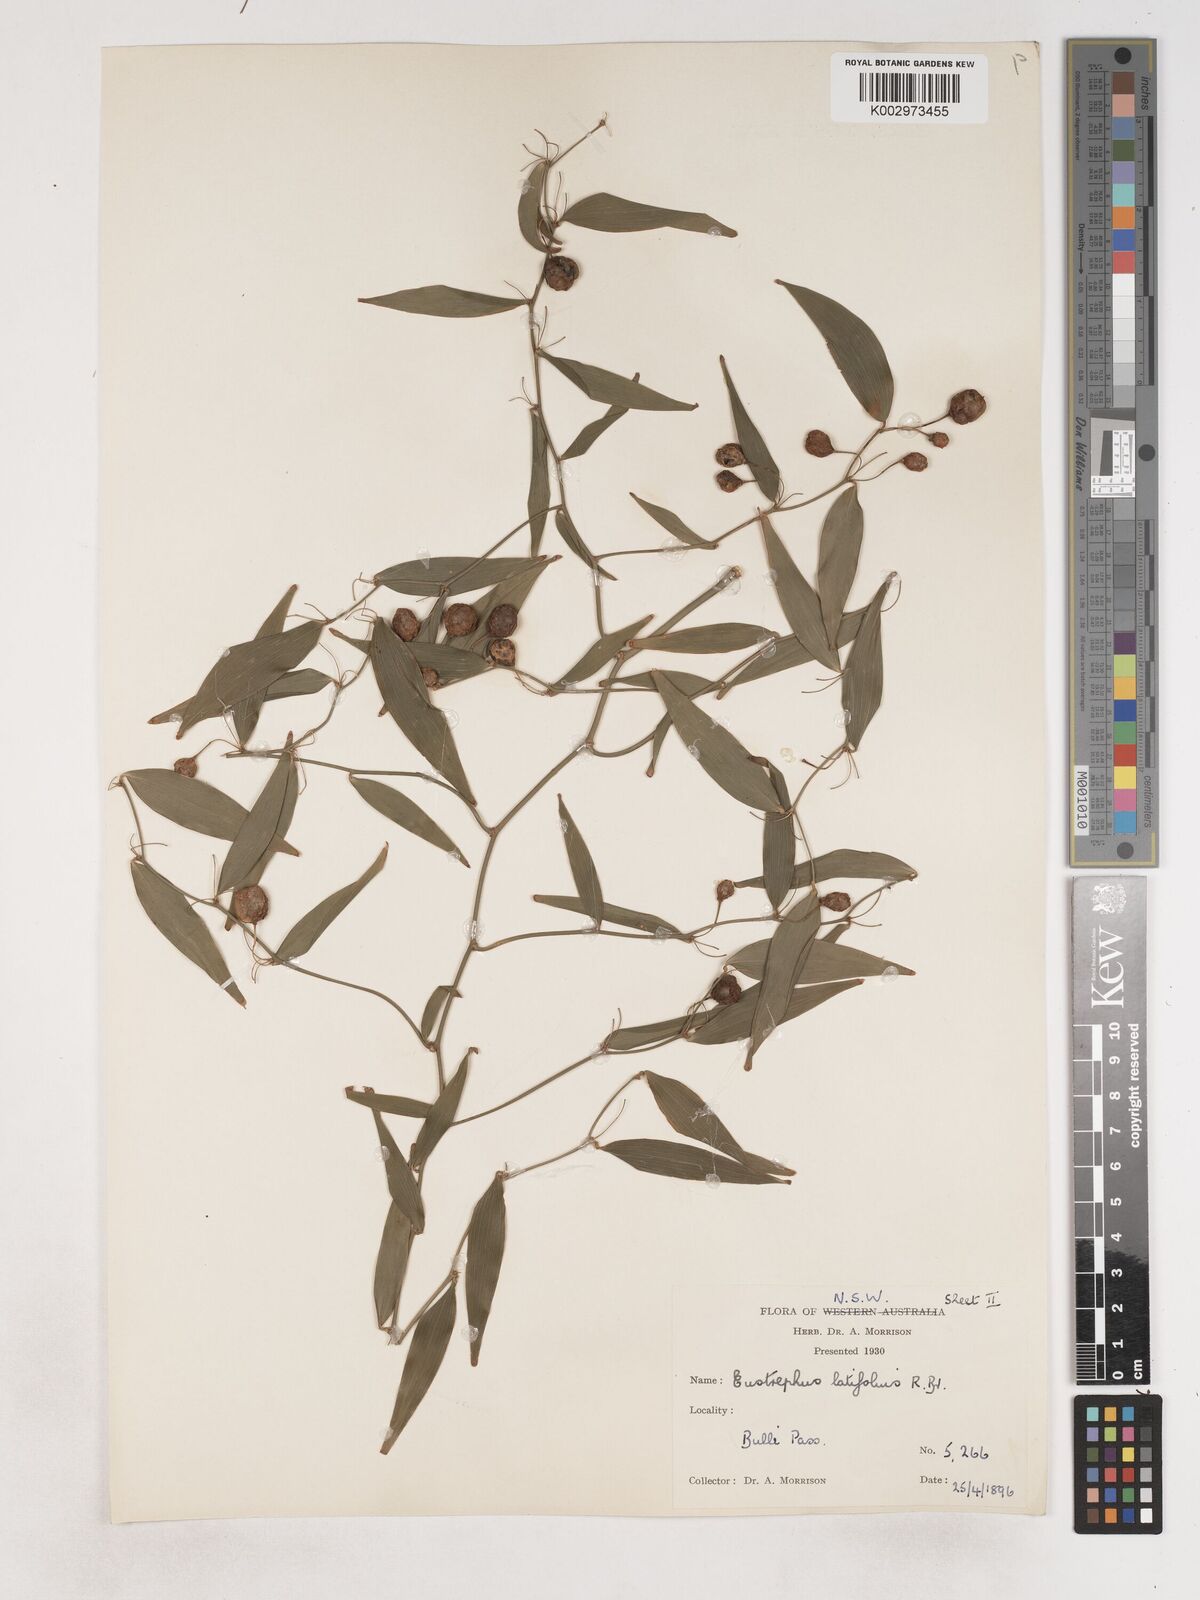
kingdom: Plantae
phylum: Tracheophyta
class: Liliopsida
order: Asparagales
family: Asparagaceae
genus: Eustrephus
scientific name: Eustrephus latifolius
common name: Orangevine
